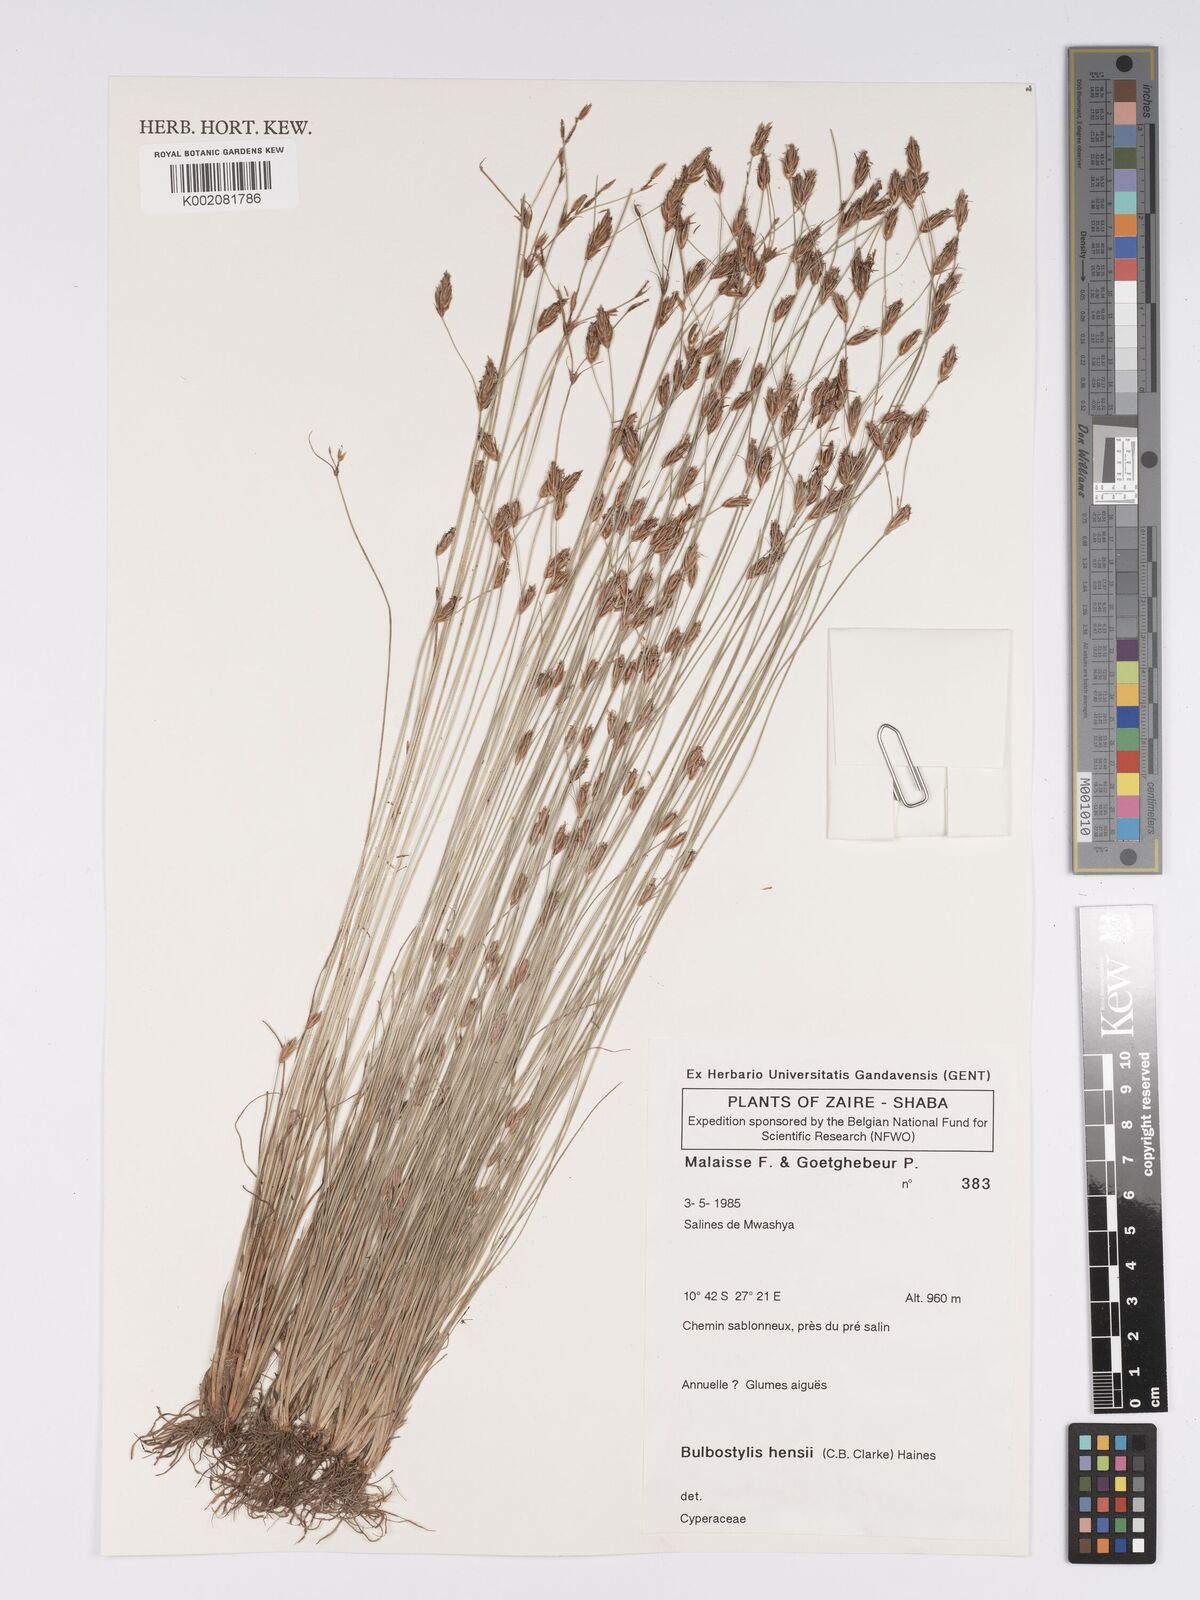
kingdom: Plantae
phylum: Tracheophyta
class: Liliopsida
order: Poales
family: Cyperaceae
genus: Bulbostylis
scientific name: Bulbostylis hensii
